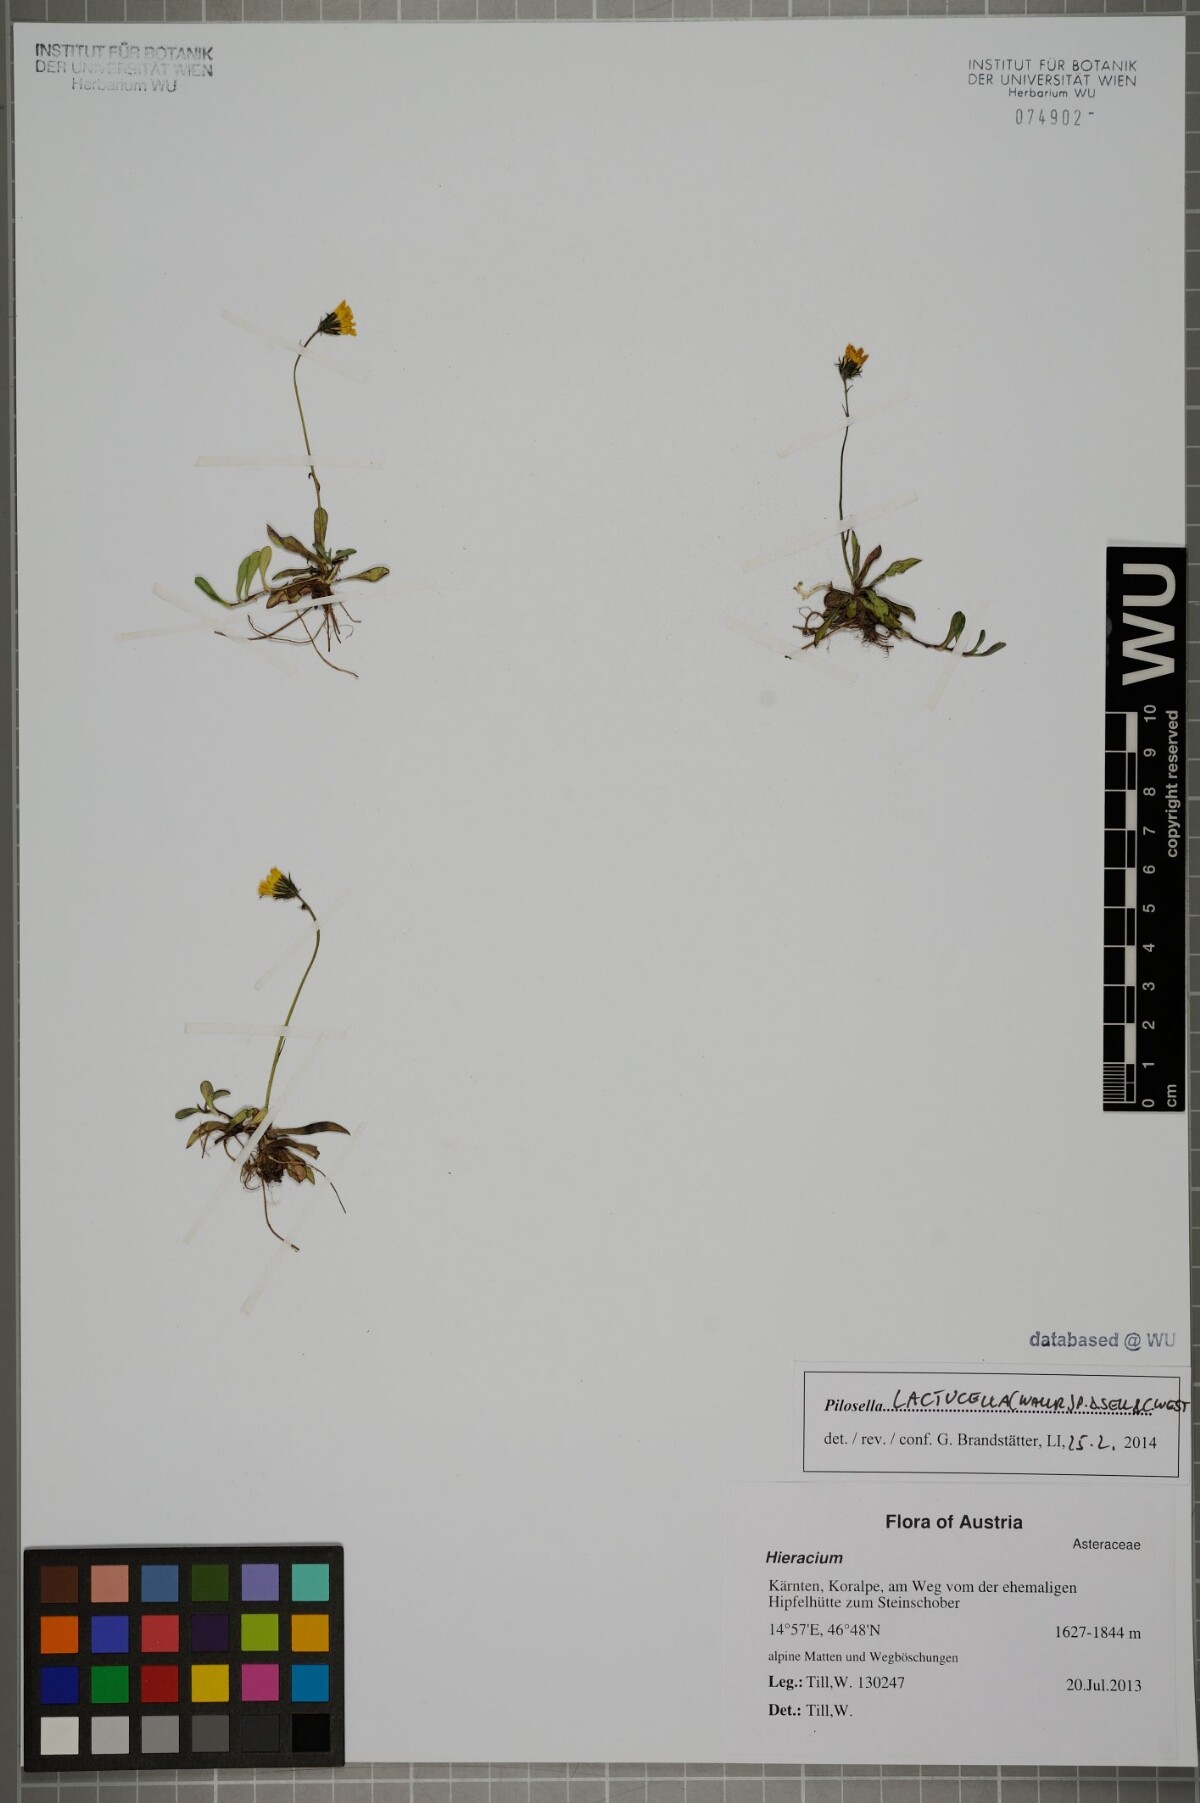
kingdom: Plantae
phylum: Tracheophyta
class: Magnoliopsida
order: Asterales
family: Asteraceae
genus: Pilosella
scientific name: Pilosella lactucella
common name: Glaucous fox-and-cubs
